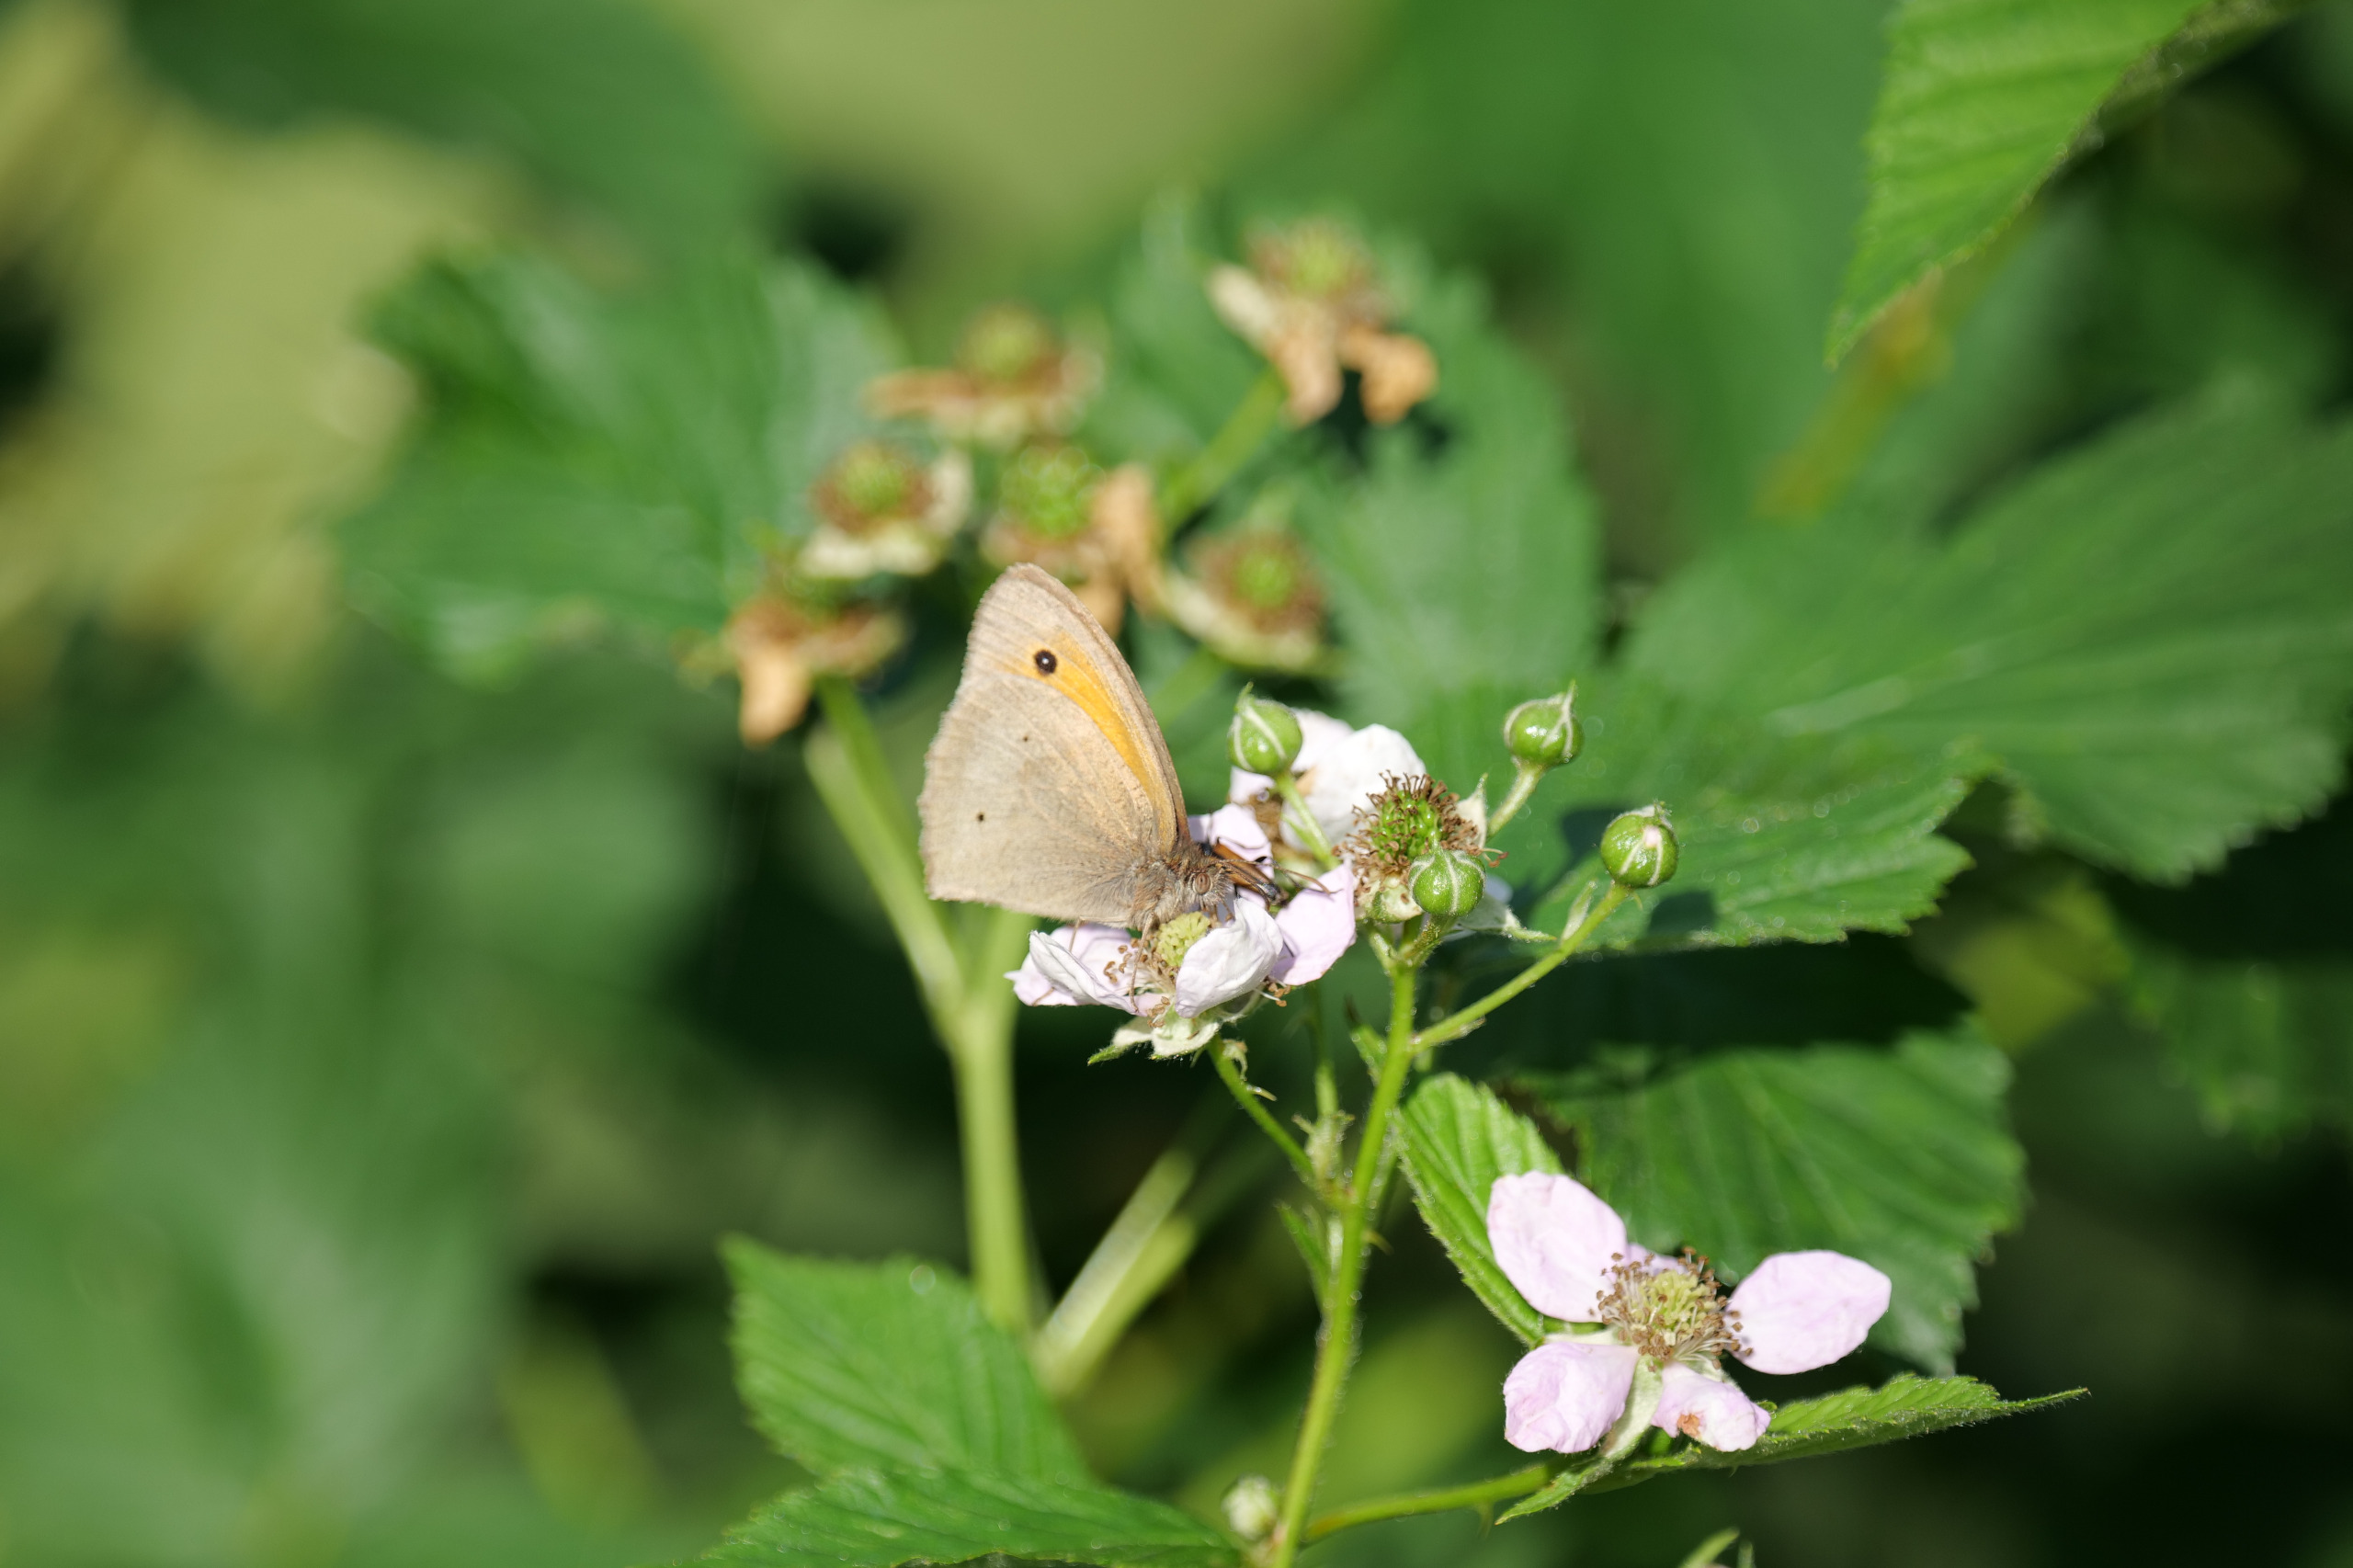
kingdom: Animalia
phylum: Arthropoda
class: Insecta
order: Lepidoptera
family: Nymphalidae
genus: Maniola
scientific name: Maniola jurtina
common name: Græsrandøje
